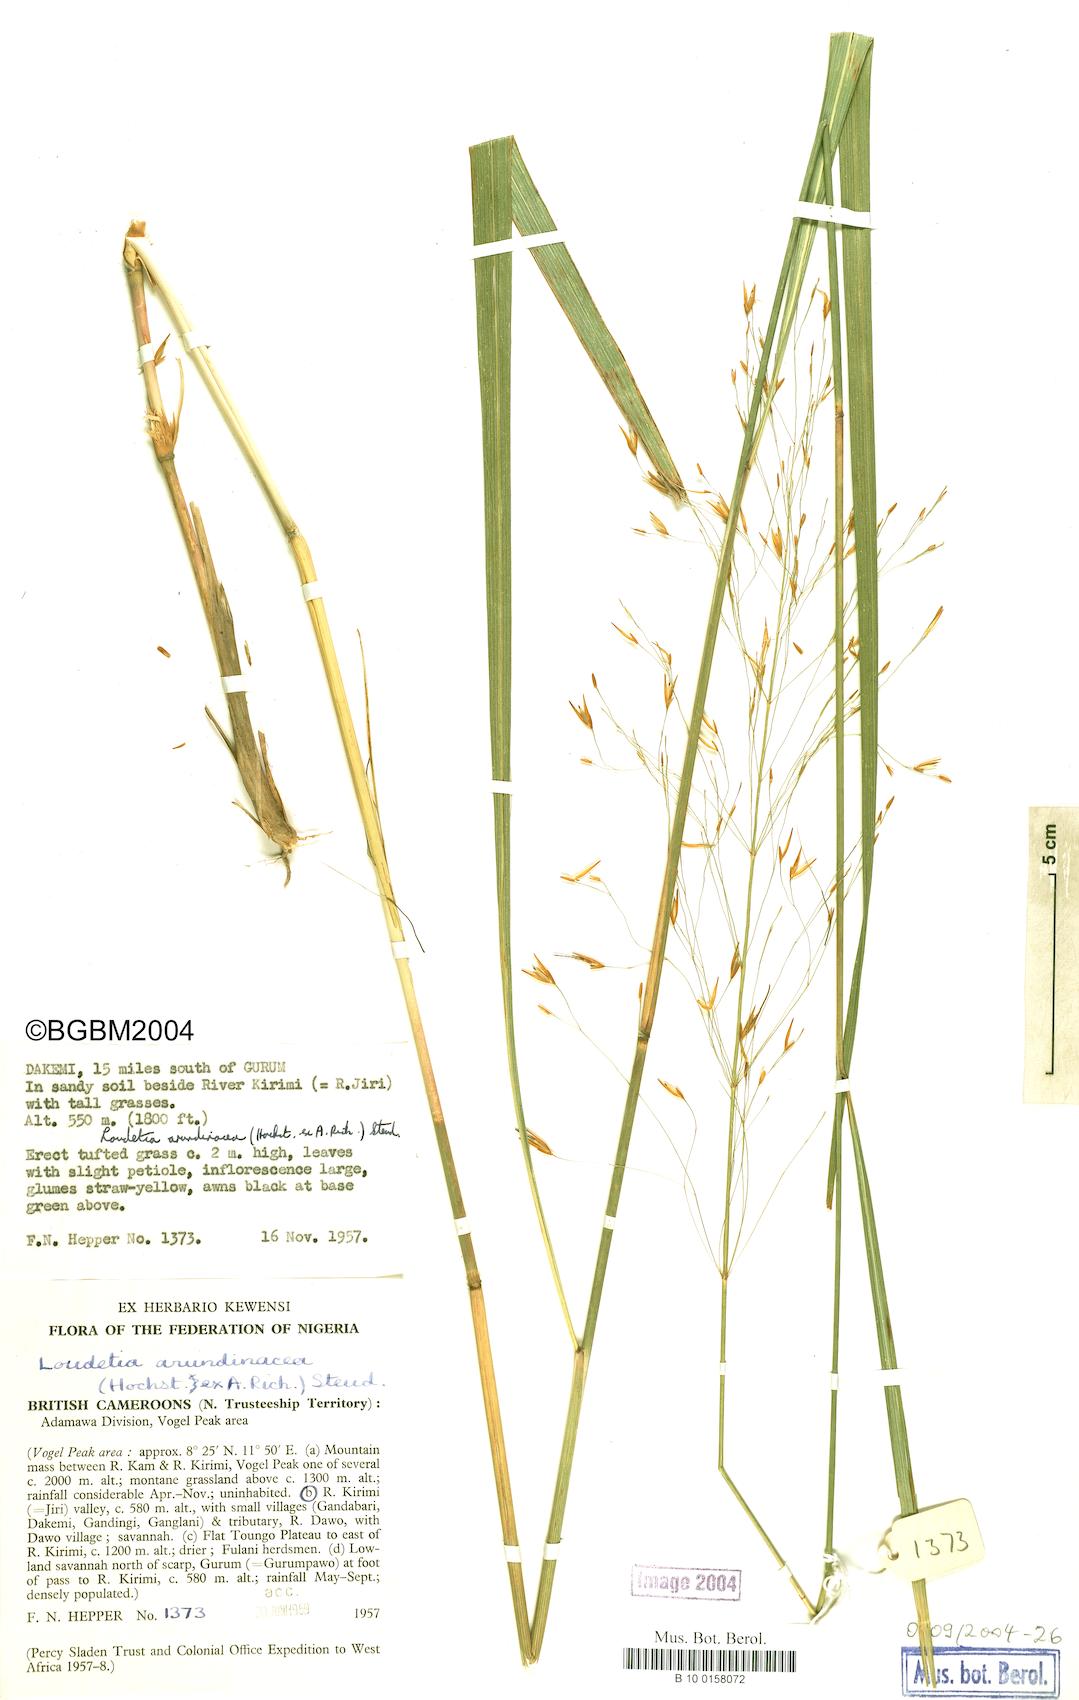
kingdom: Plantae
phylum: Tracheophyta
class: Liliopsida
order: Poales
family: Poaceae
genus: Loudetia
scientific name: Loudetia arundinacea
